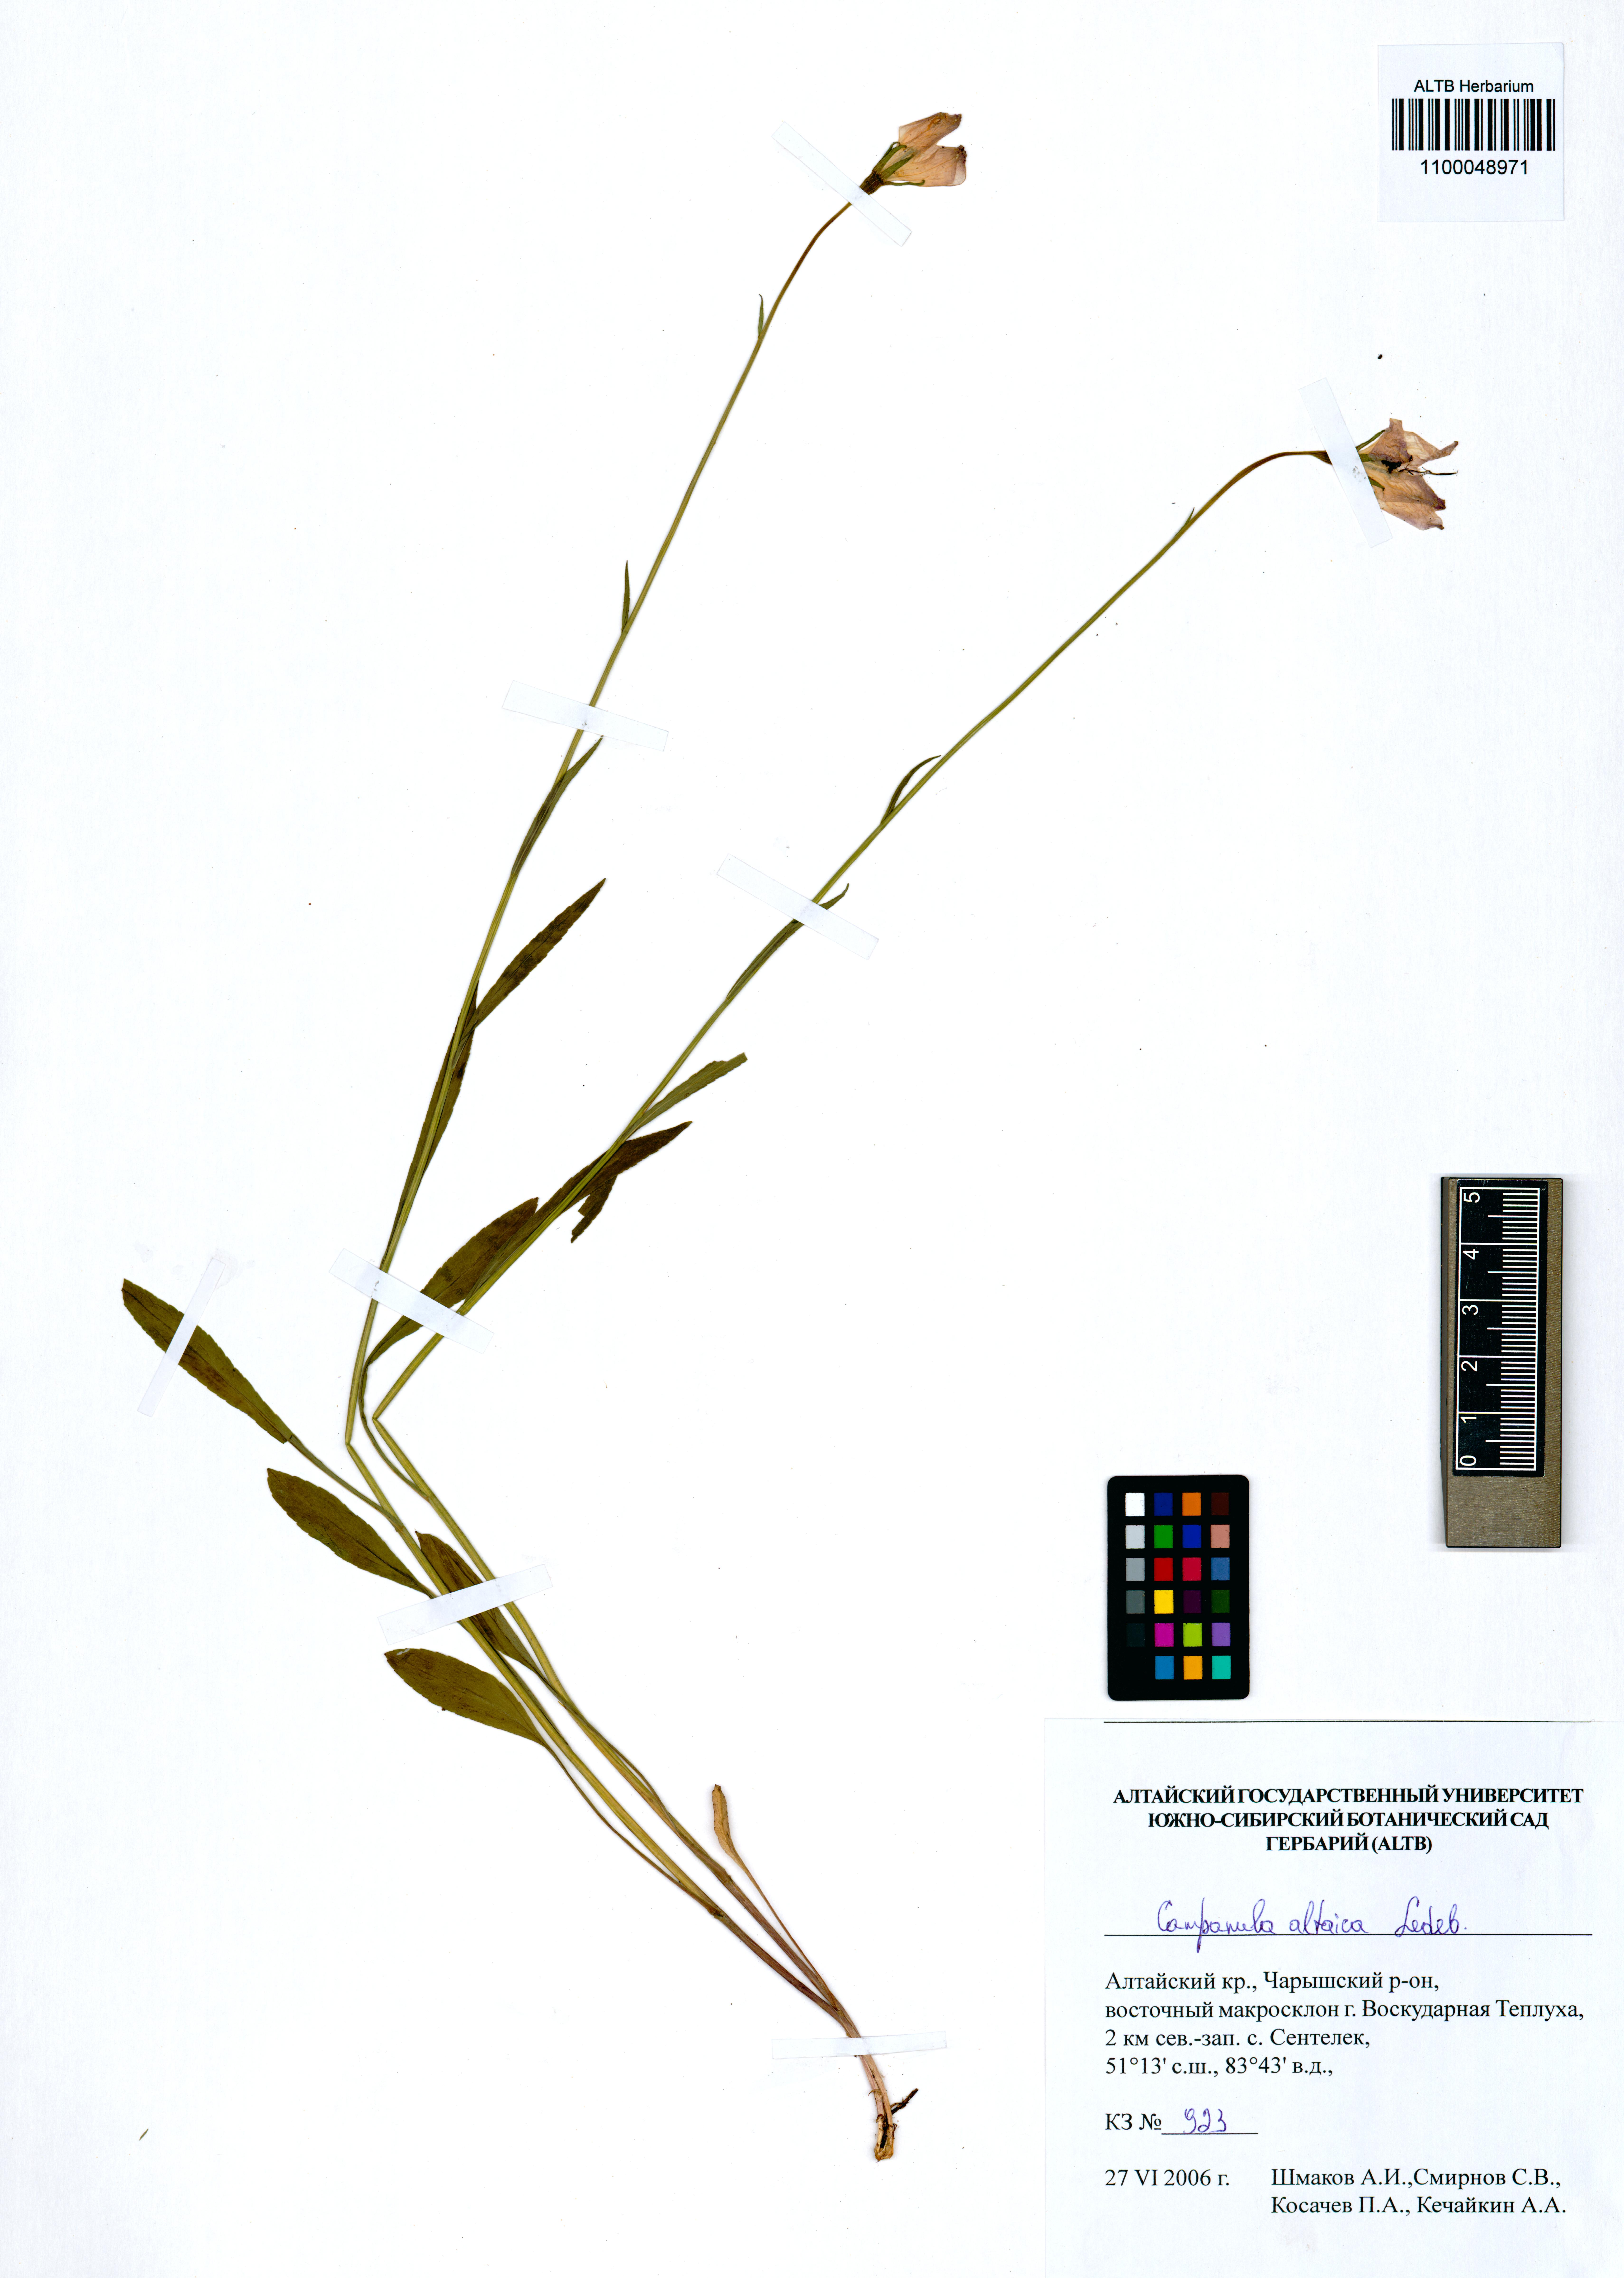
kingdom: Plantae
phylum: Tracheophyta
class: Magnoliopsida
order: Asterales
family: Campanulaceae
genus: Campanula
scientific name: Campanula stevenii
